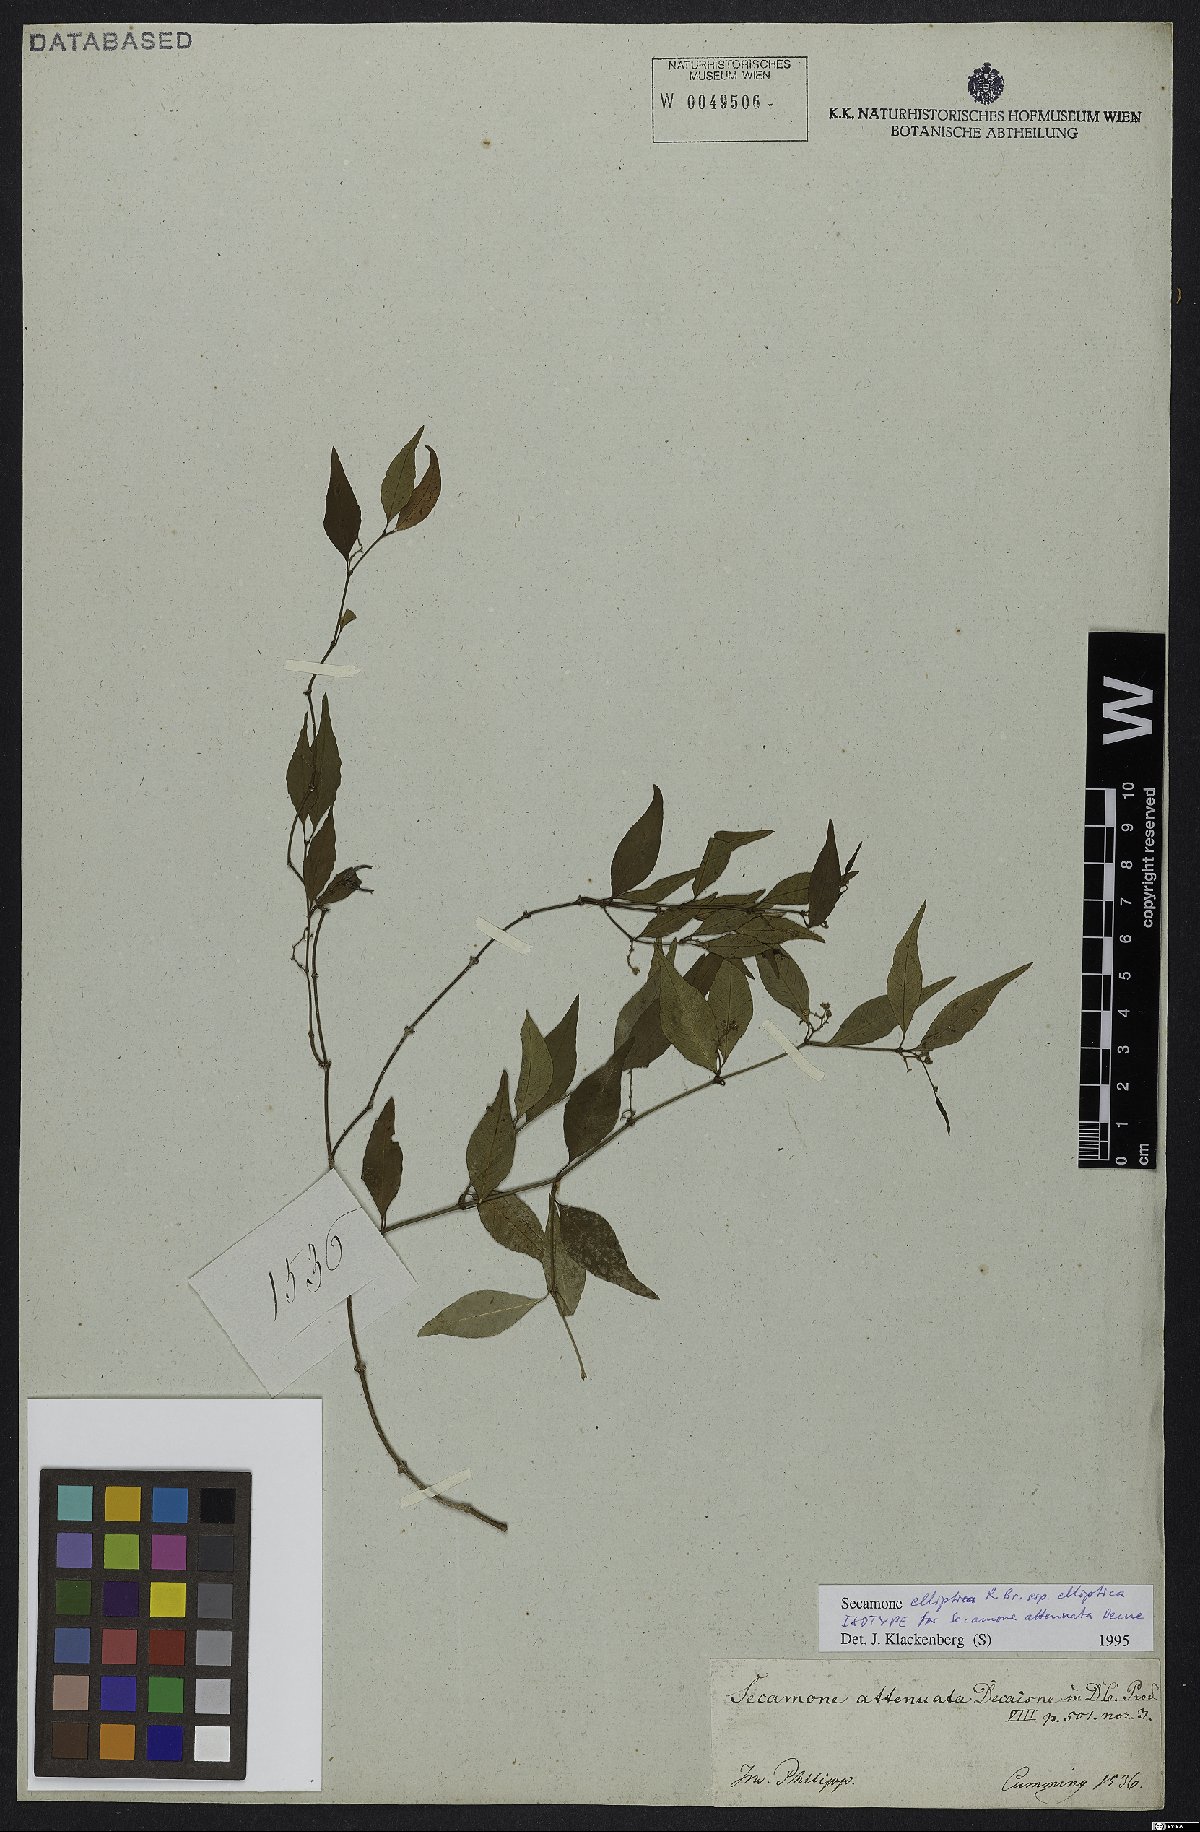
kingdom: Plantae
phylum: Tracheophyta
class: Magnoliopsida
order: Gentianales
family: Apocynaceae
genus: Secamone
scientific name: Secamone elliptica
